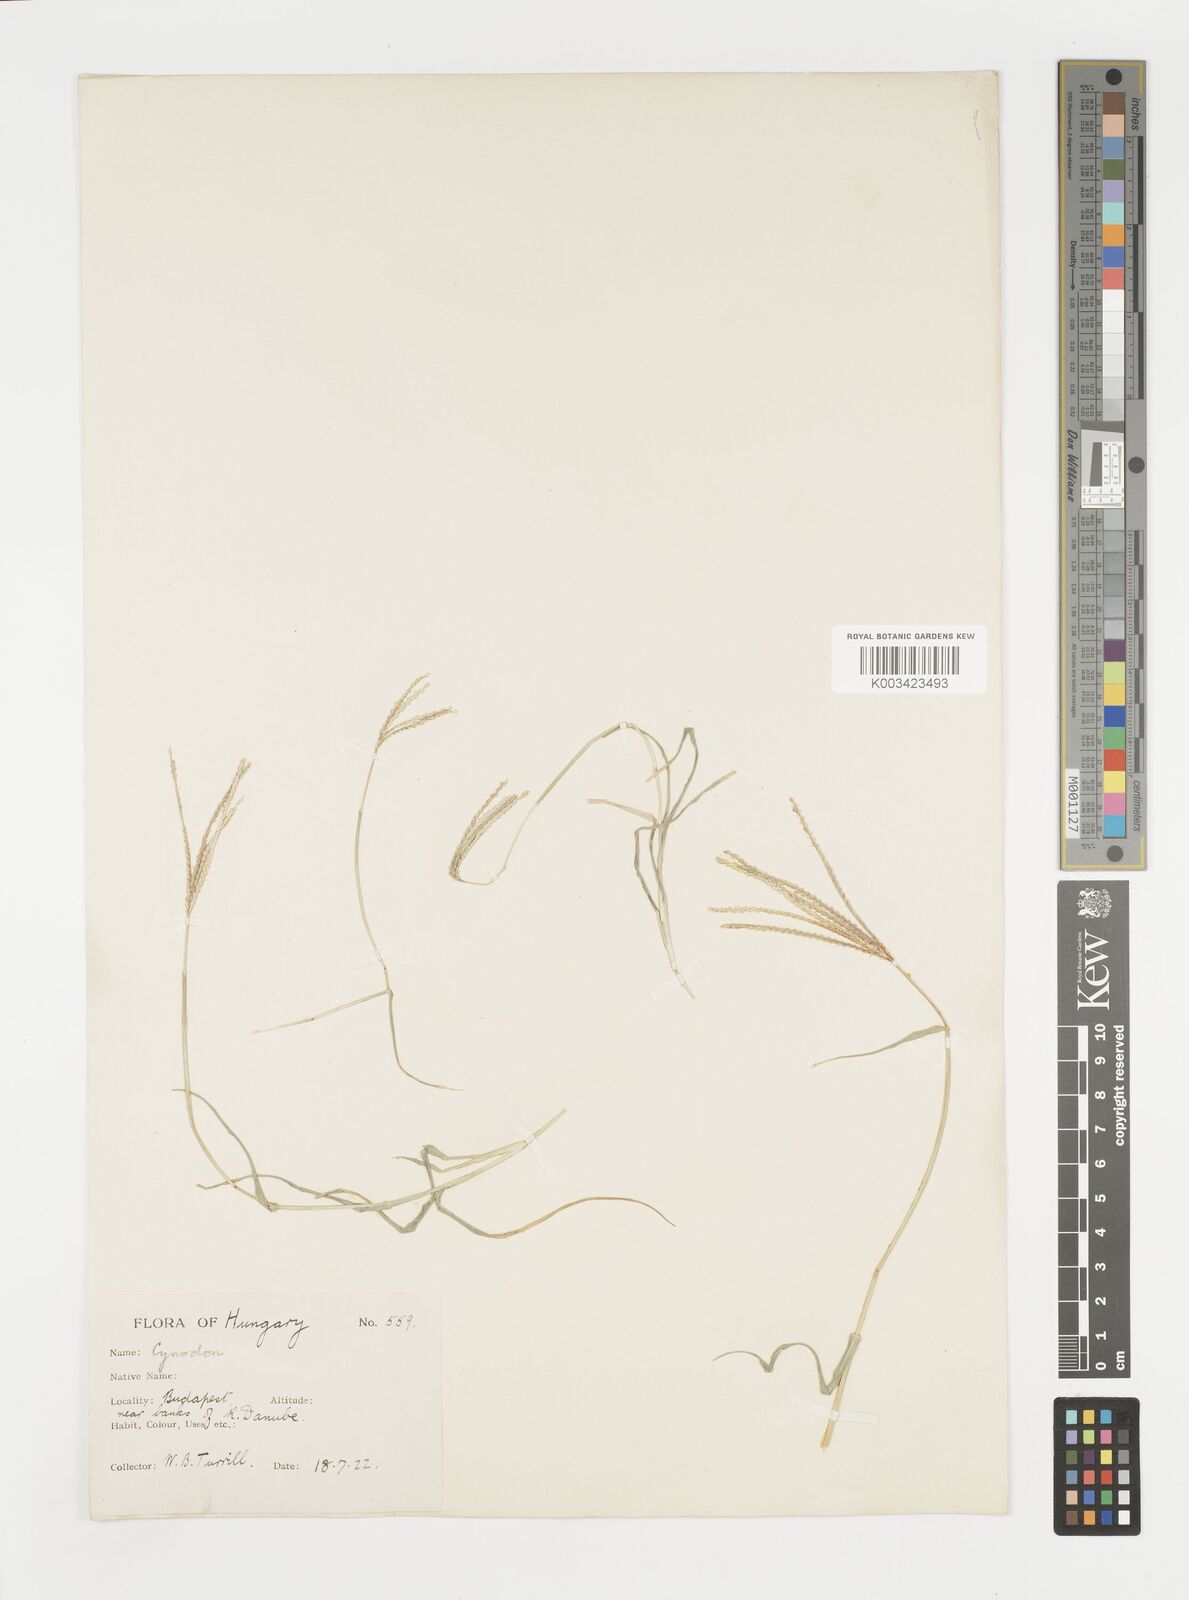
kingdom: Plantae
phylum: Tracheophyta
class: Liliopsida
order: Poales
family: Poaceae
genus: Cynodon
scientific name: Cynodon dactylon
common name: Bermuda grass
